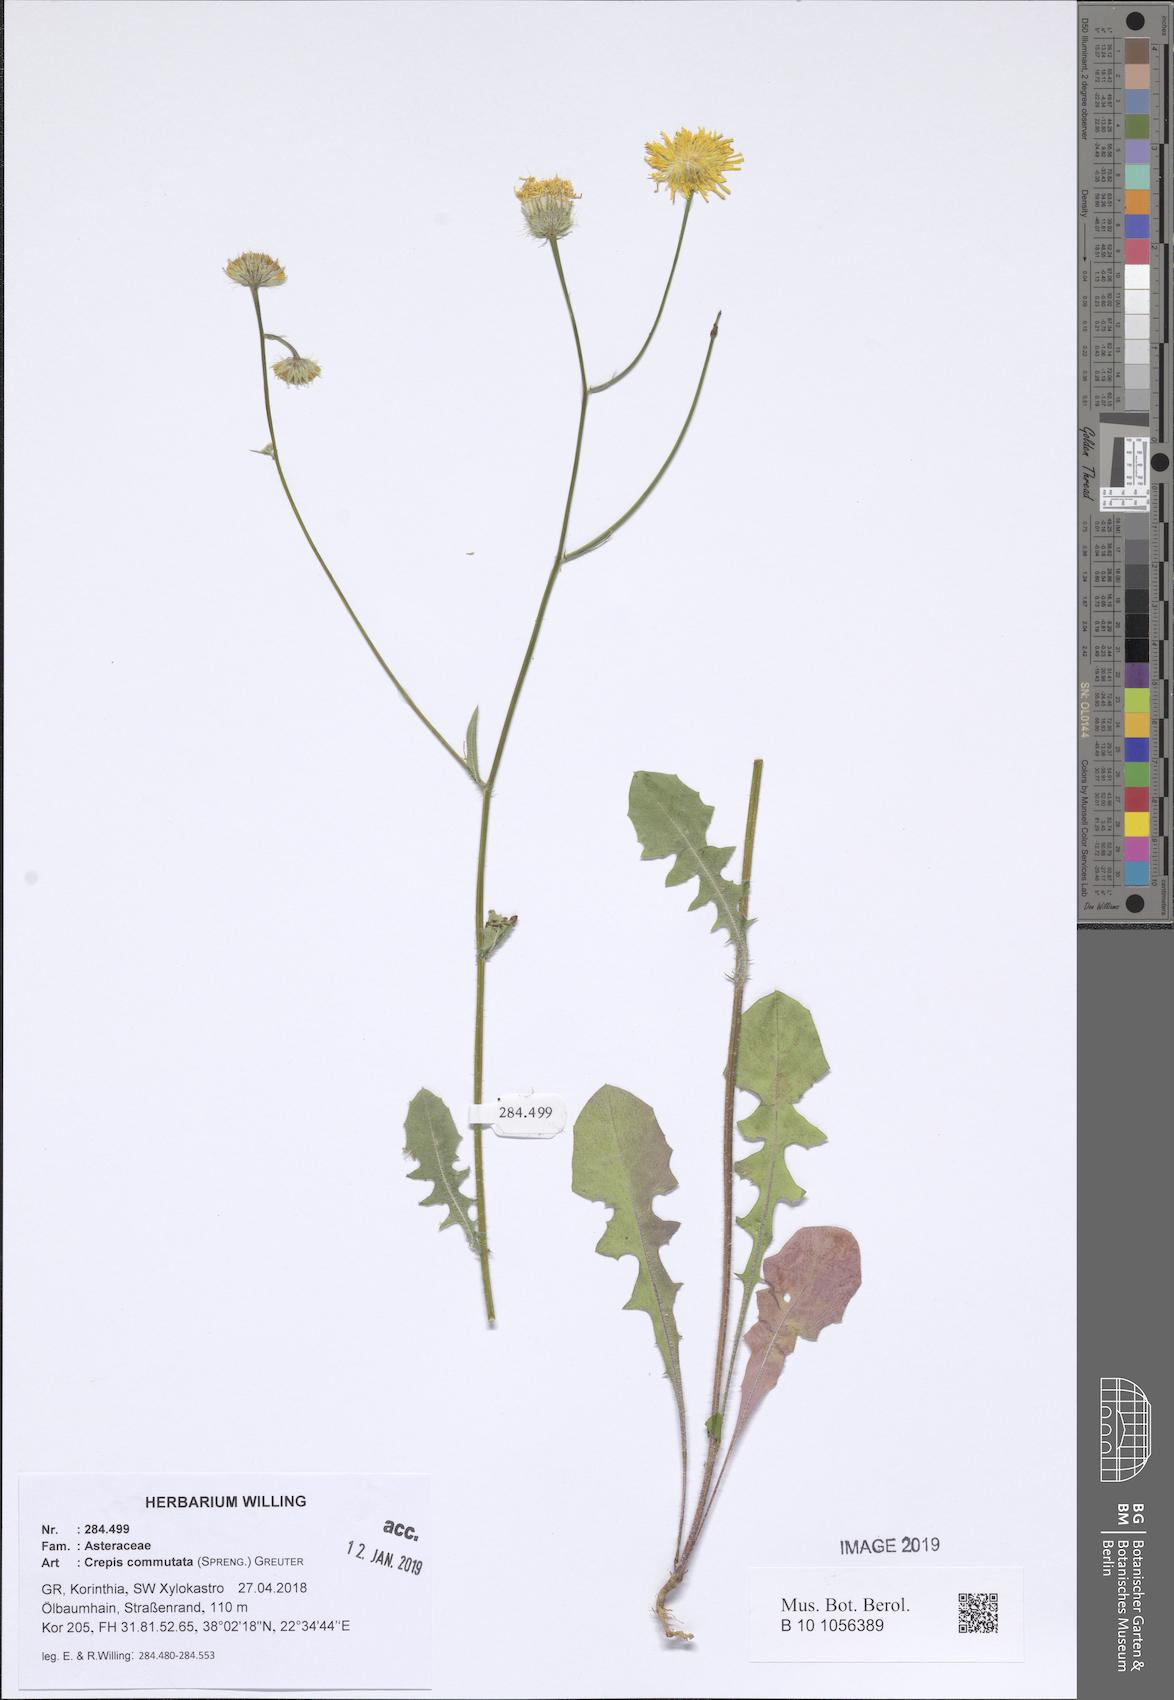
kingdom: Plantae
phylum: Tracheophyta
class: Magnoliopsida
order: Asterales
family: Asteraceae
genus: Crepis
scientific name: Crepis commutata
